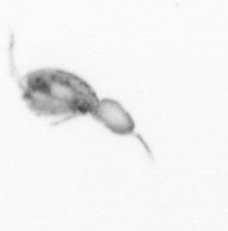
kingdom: Animalia
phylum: Arthropoda
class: Copepoda
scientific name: Copepoda
